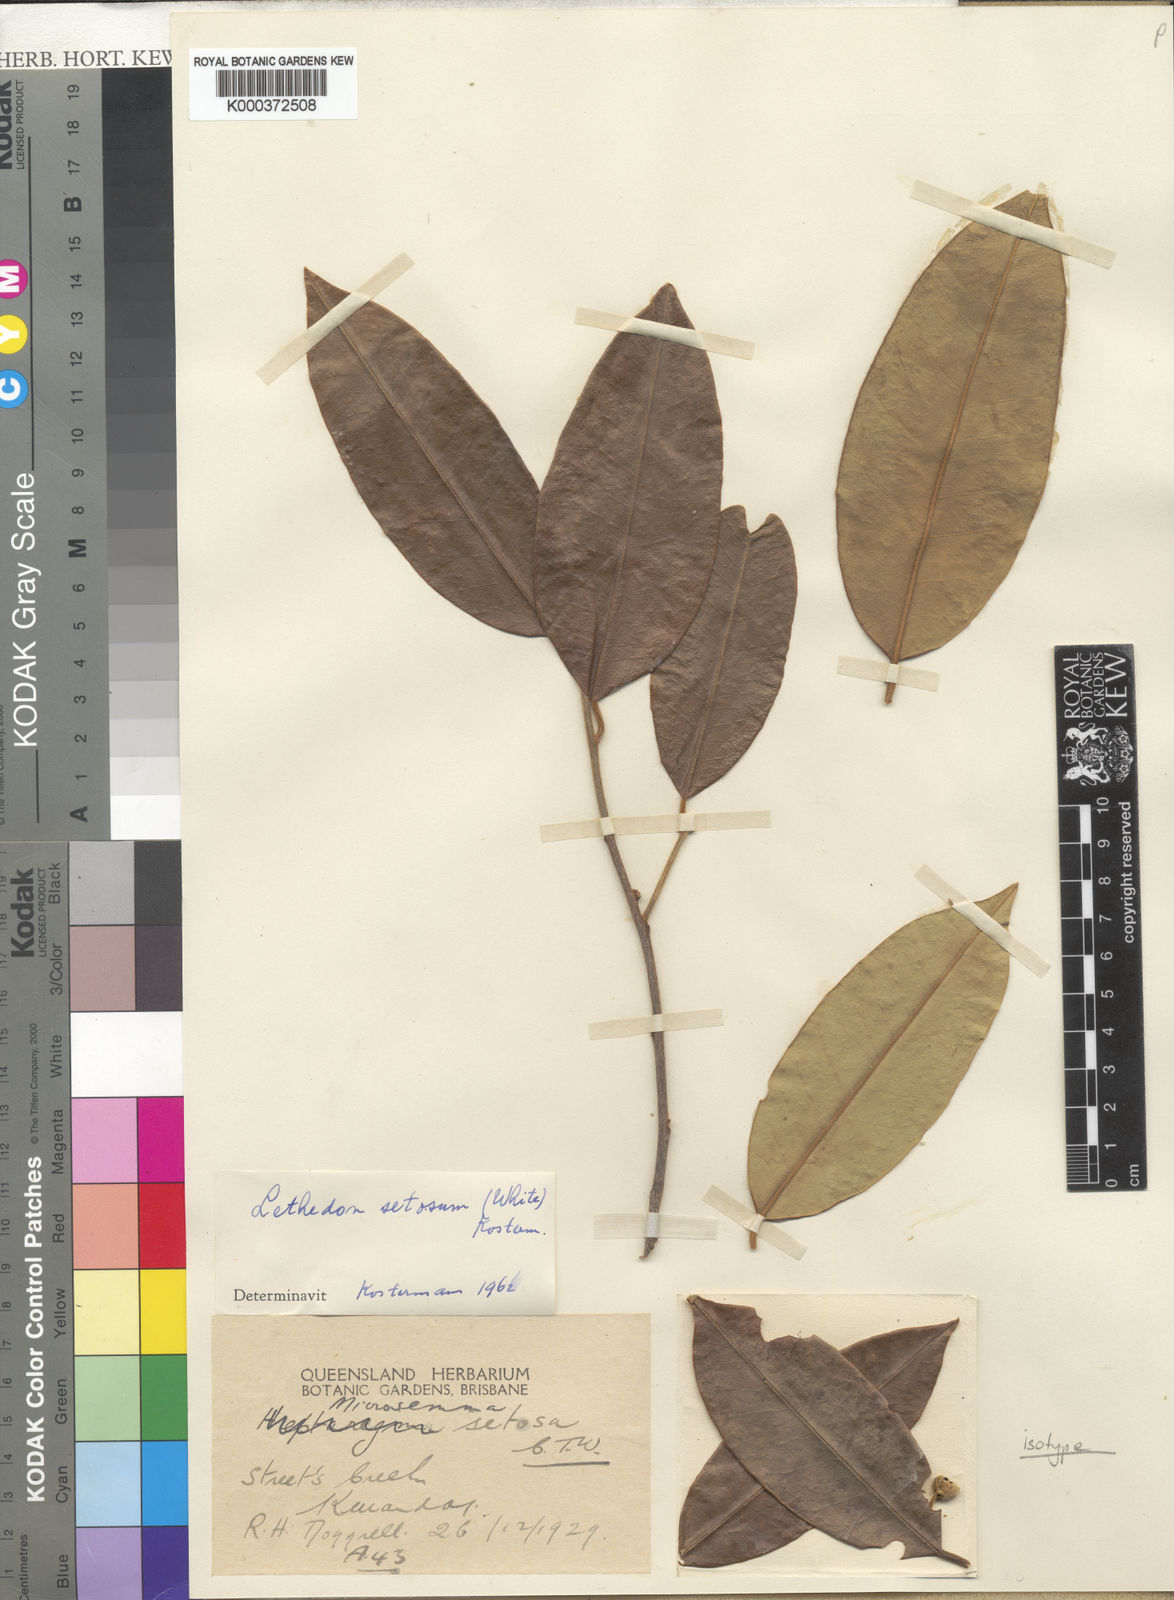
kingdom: Plantae
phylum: Tracheophyta
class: Magnoliopsida
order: Malvales
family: Thymelaeaceae
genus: Lethedon
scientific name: Lethedon setosa
